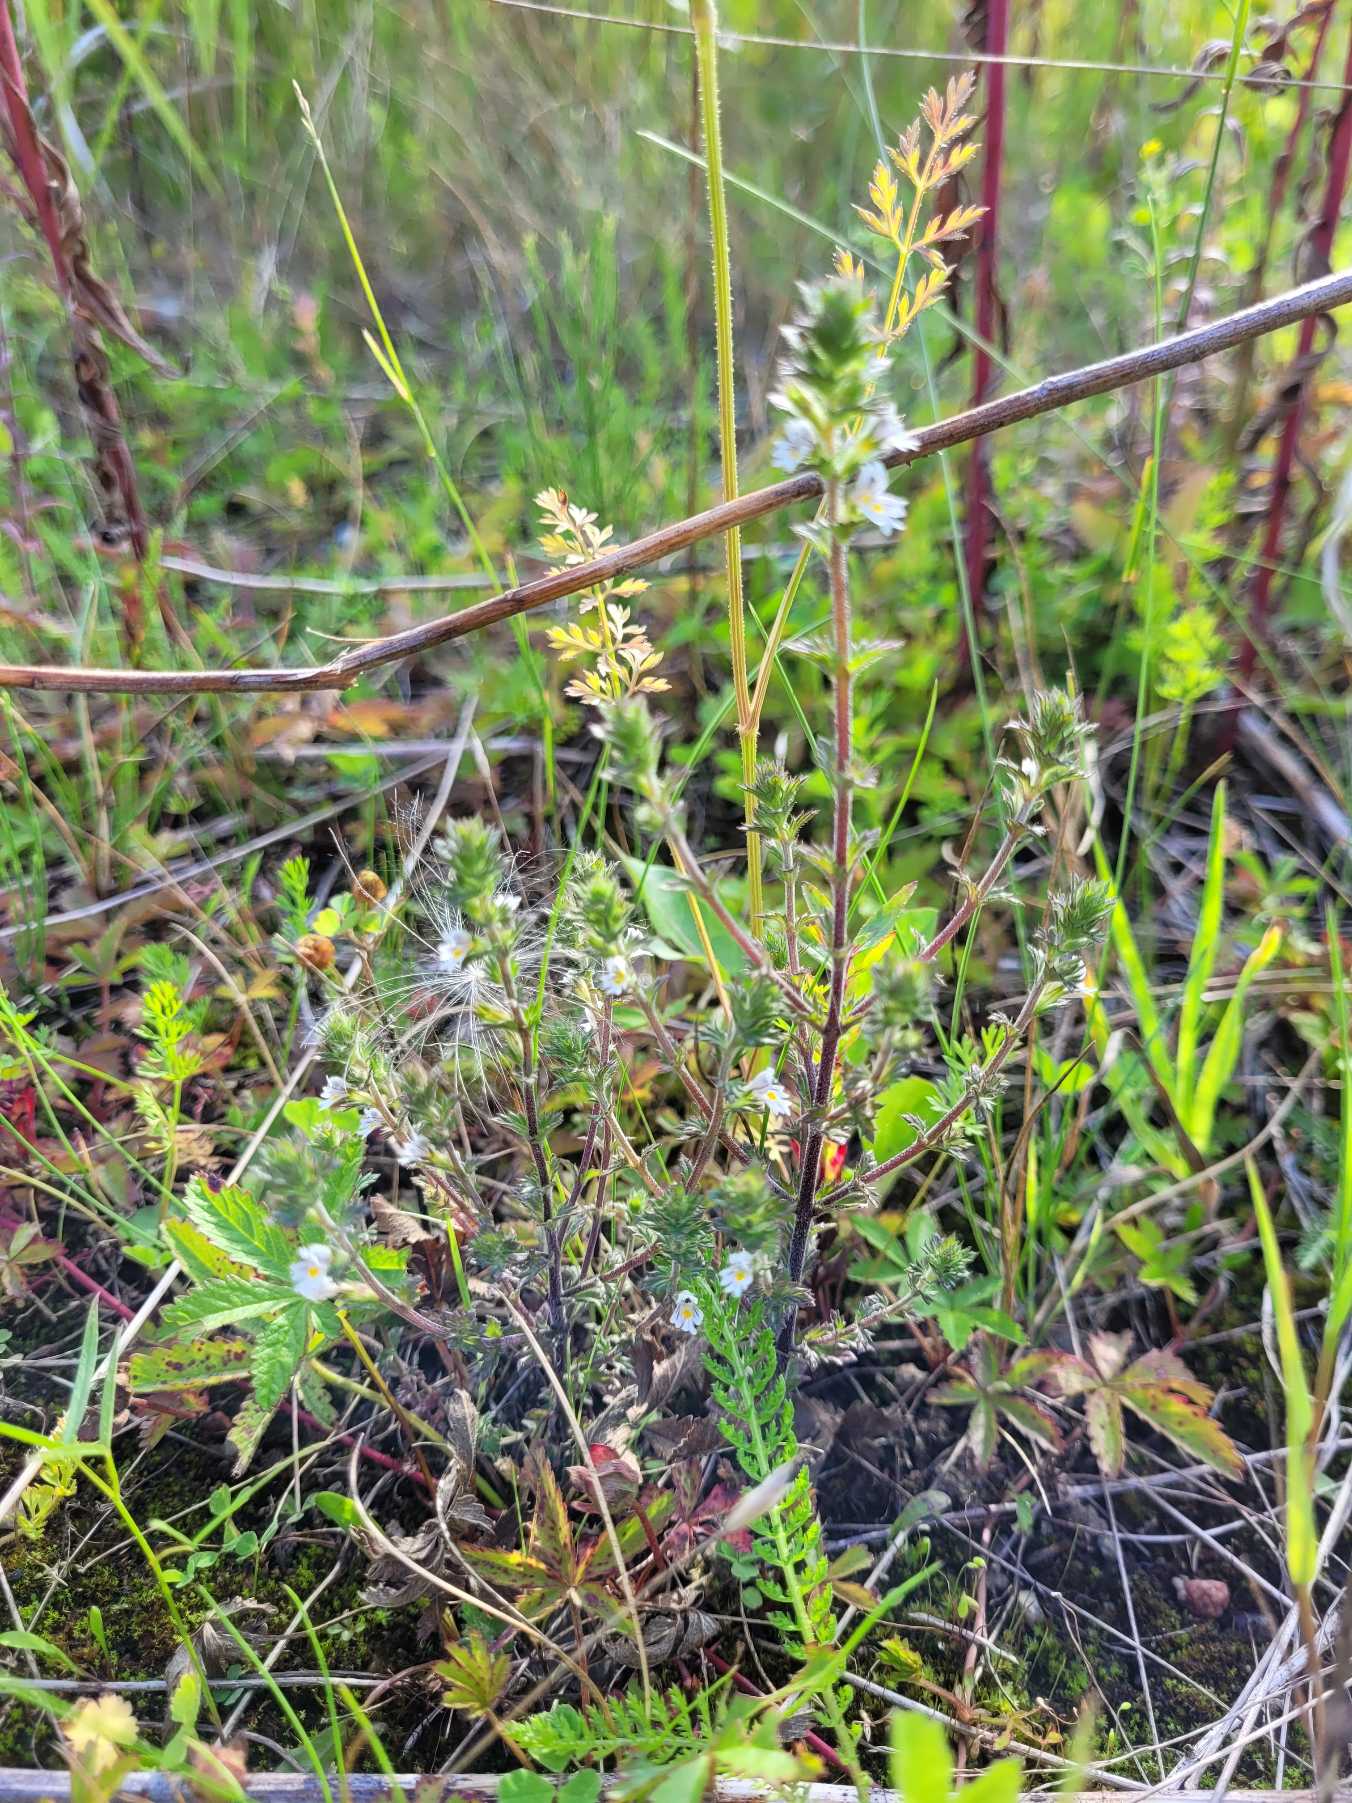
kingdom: Plantae
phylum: Tracheophyta
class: Magnoliopsida
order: Lamiales
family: Orobanchaceae
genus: Euphrasia
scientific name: Euphrasia nemorosa
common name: Kort øjentrøst
